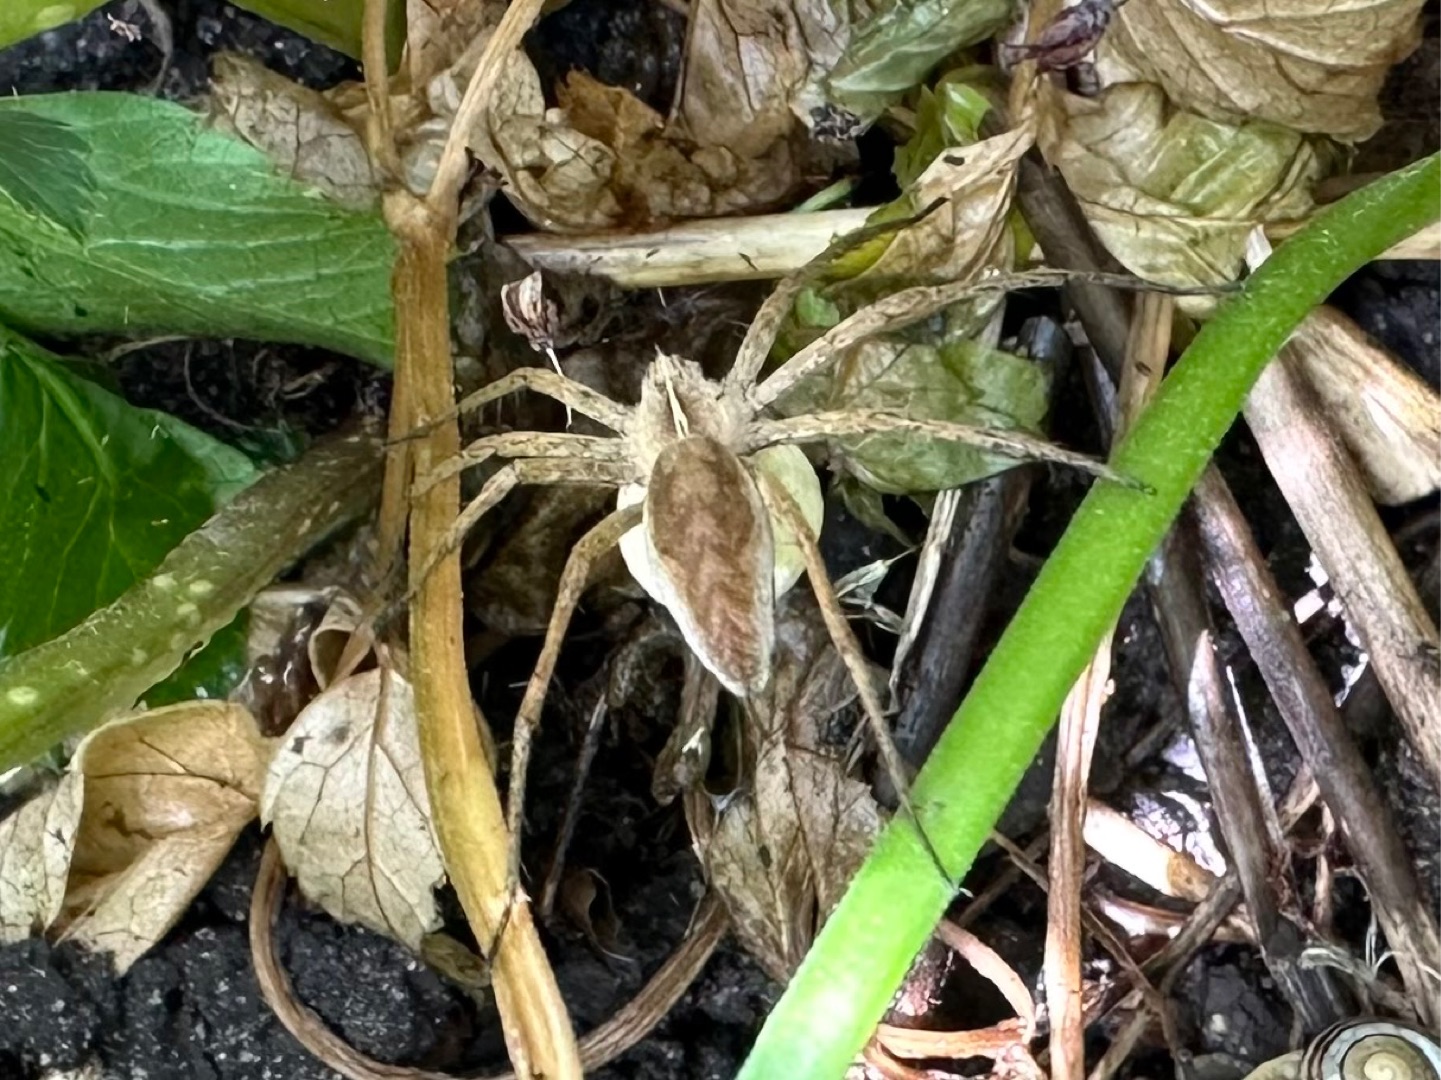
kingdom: Animalia
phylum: Arthropoda
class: Arachnida
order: Araneae
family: Pisauridae
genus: Pisaura
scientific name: Pisaura mirabilis
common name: Almindelig rovedderkop
